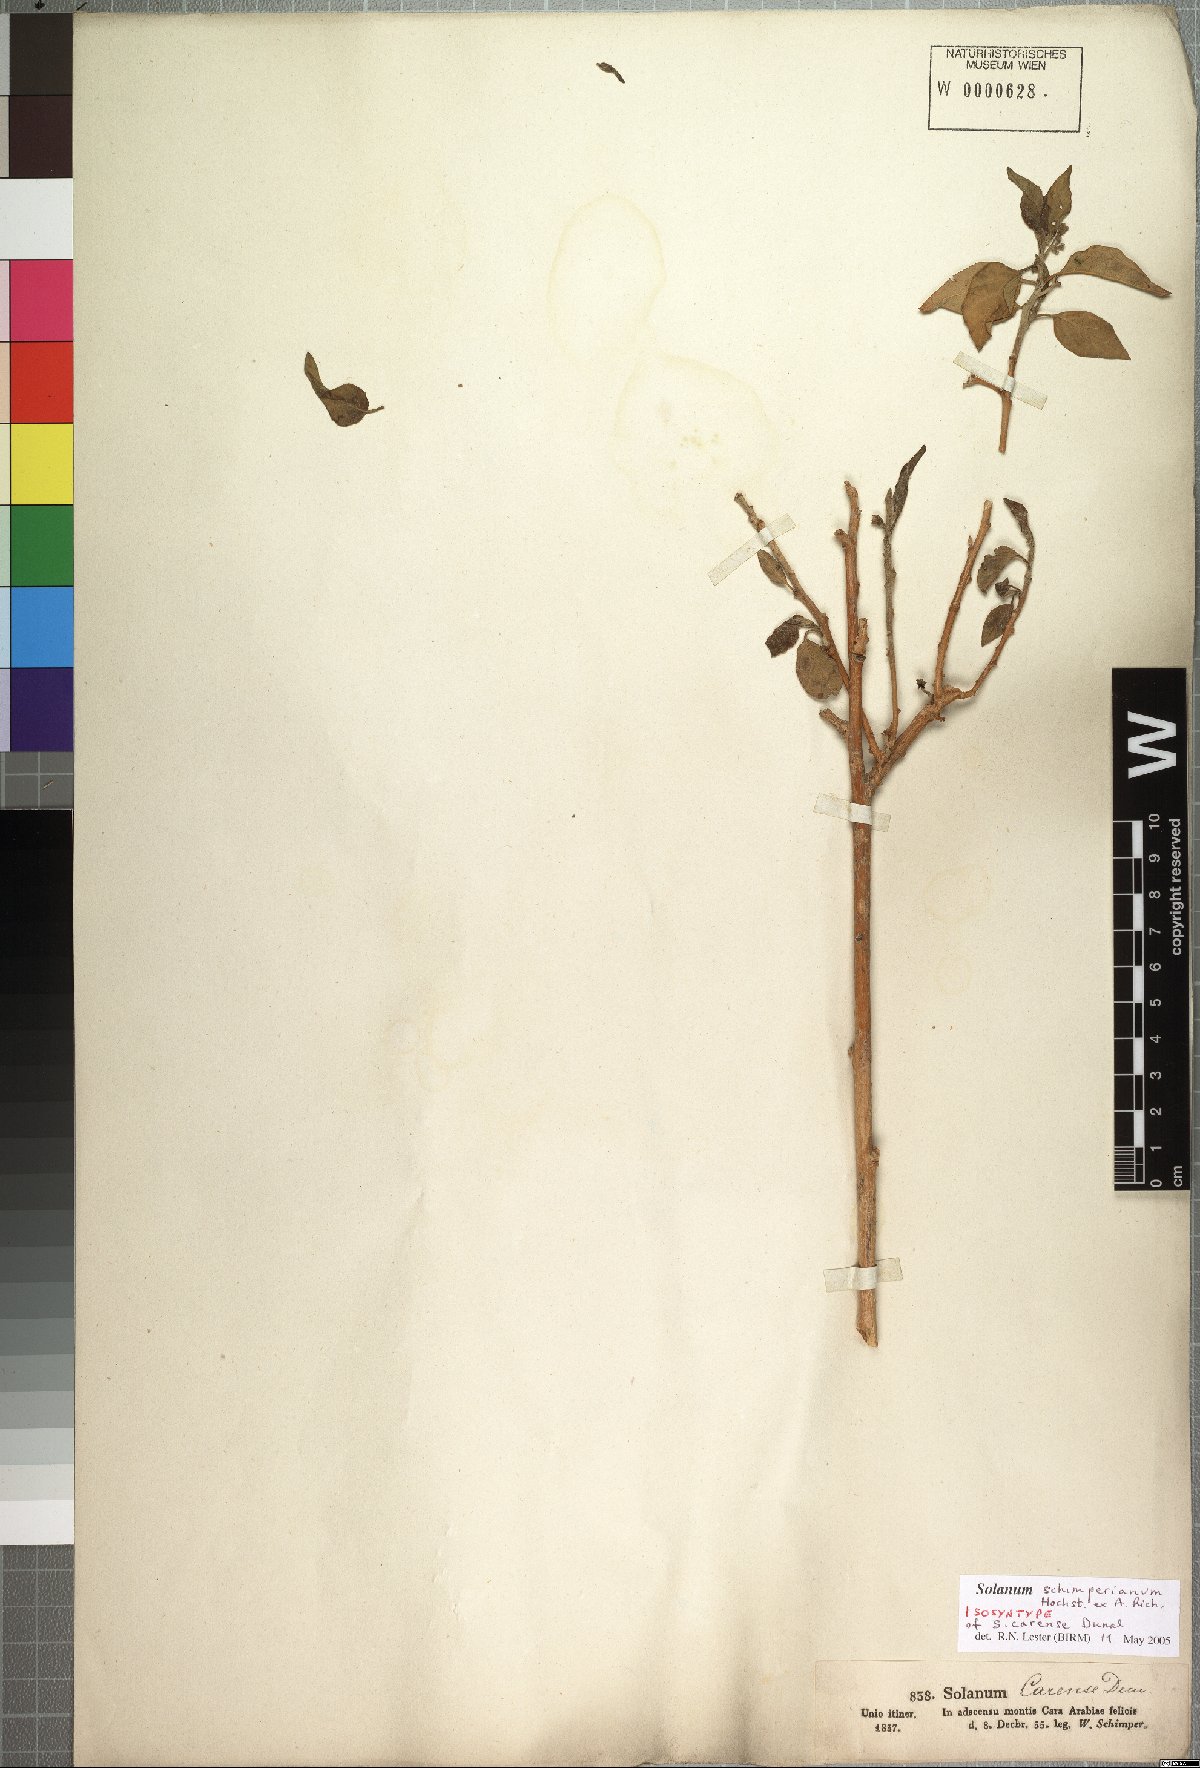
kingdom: Plantae
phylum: Tracheophyta
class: Magnoliopsida
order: Solanales
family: Solanaceae
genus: Solanum
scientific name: Solanum schimperianum
